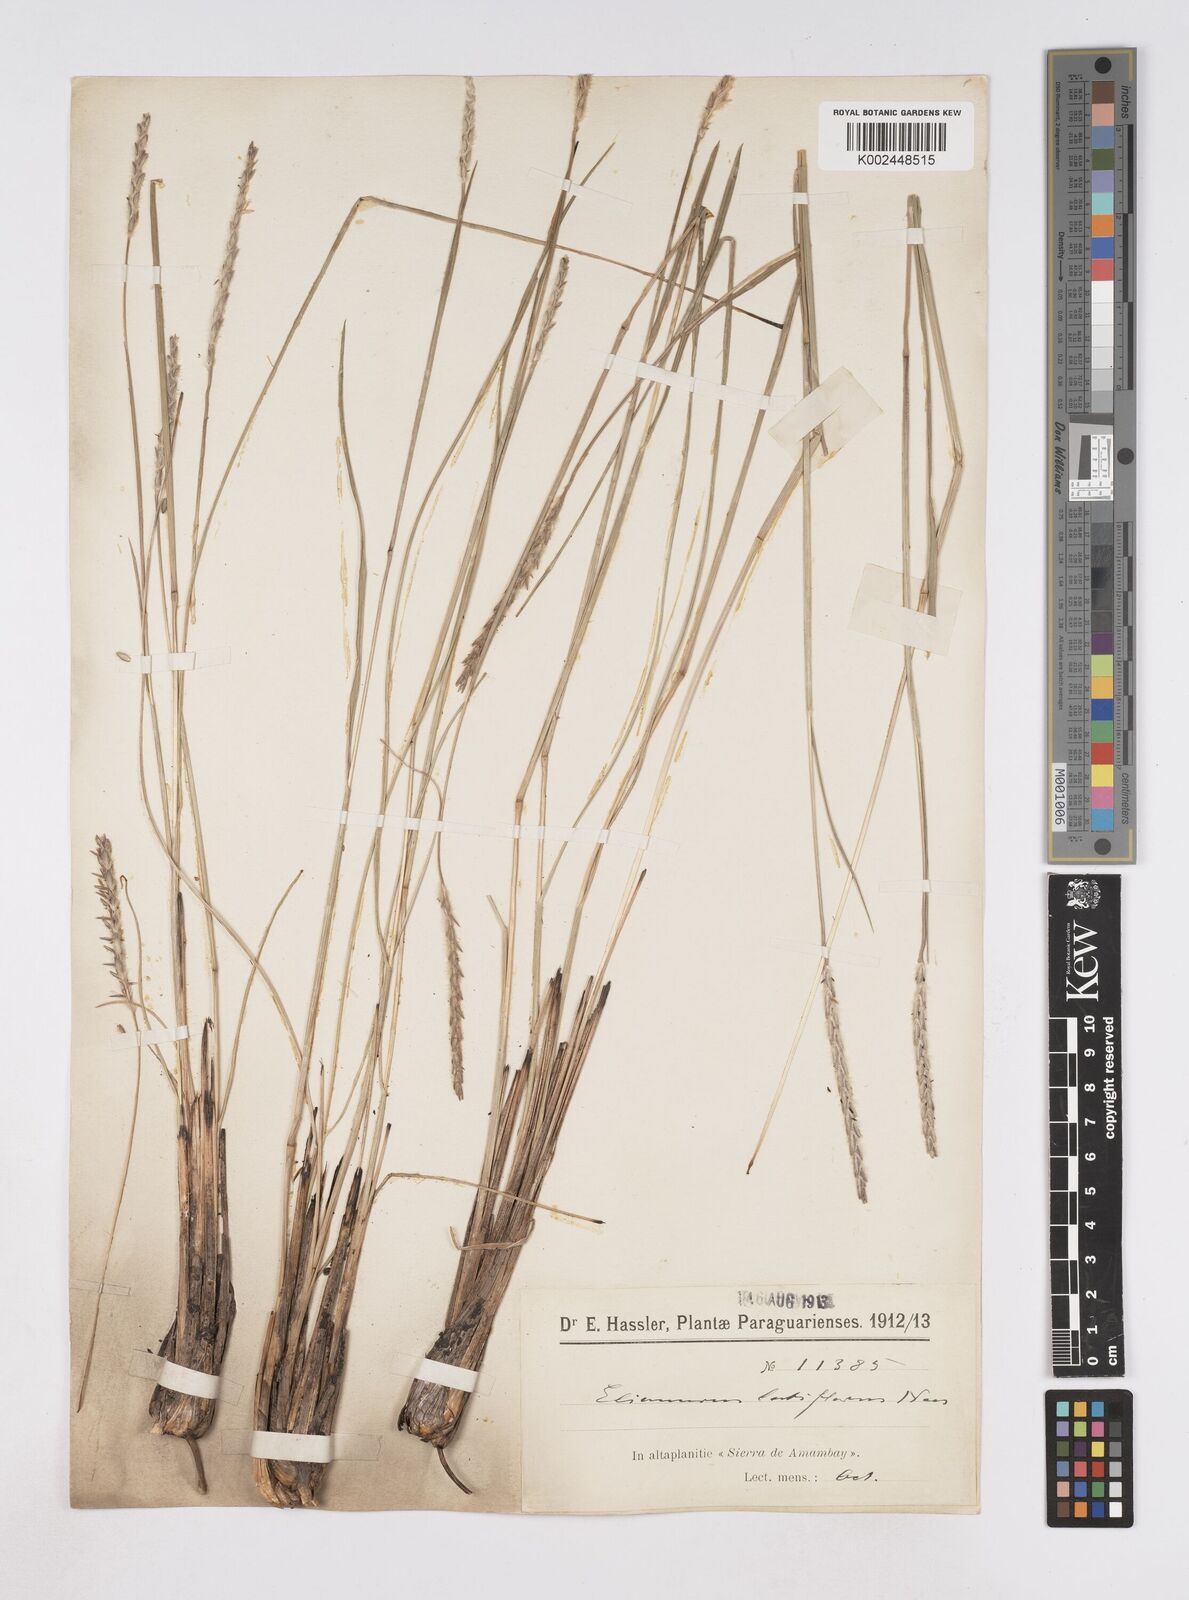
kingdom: Plantae
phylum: Tracheophyta
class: Liliopsida
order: Poales
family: Poaceae
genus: Elionurus
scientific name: Elionurus muticus
